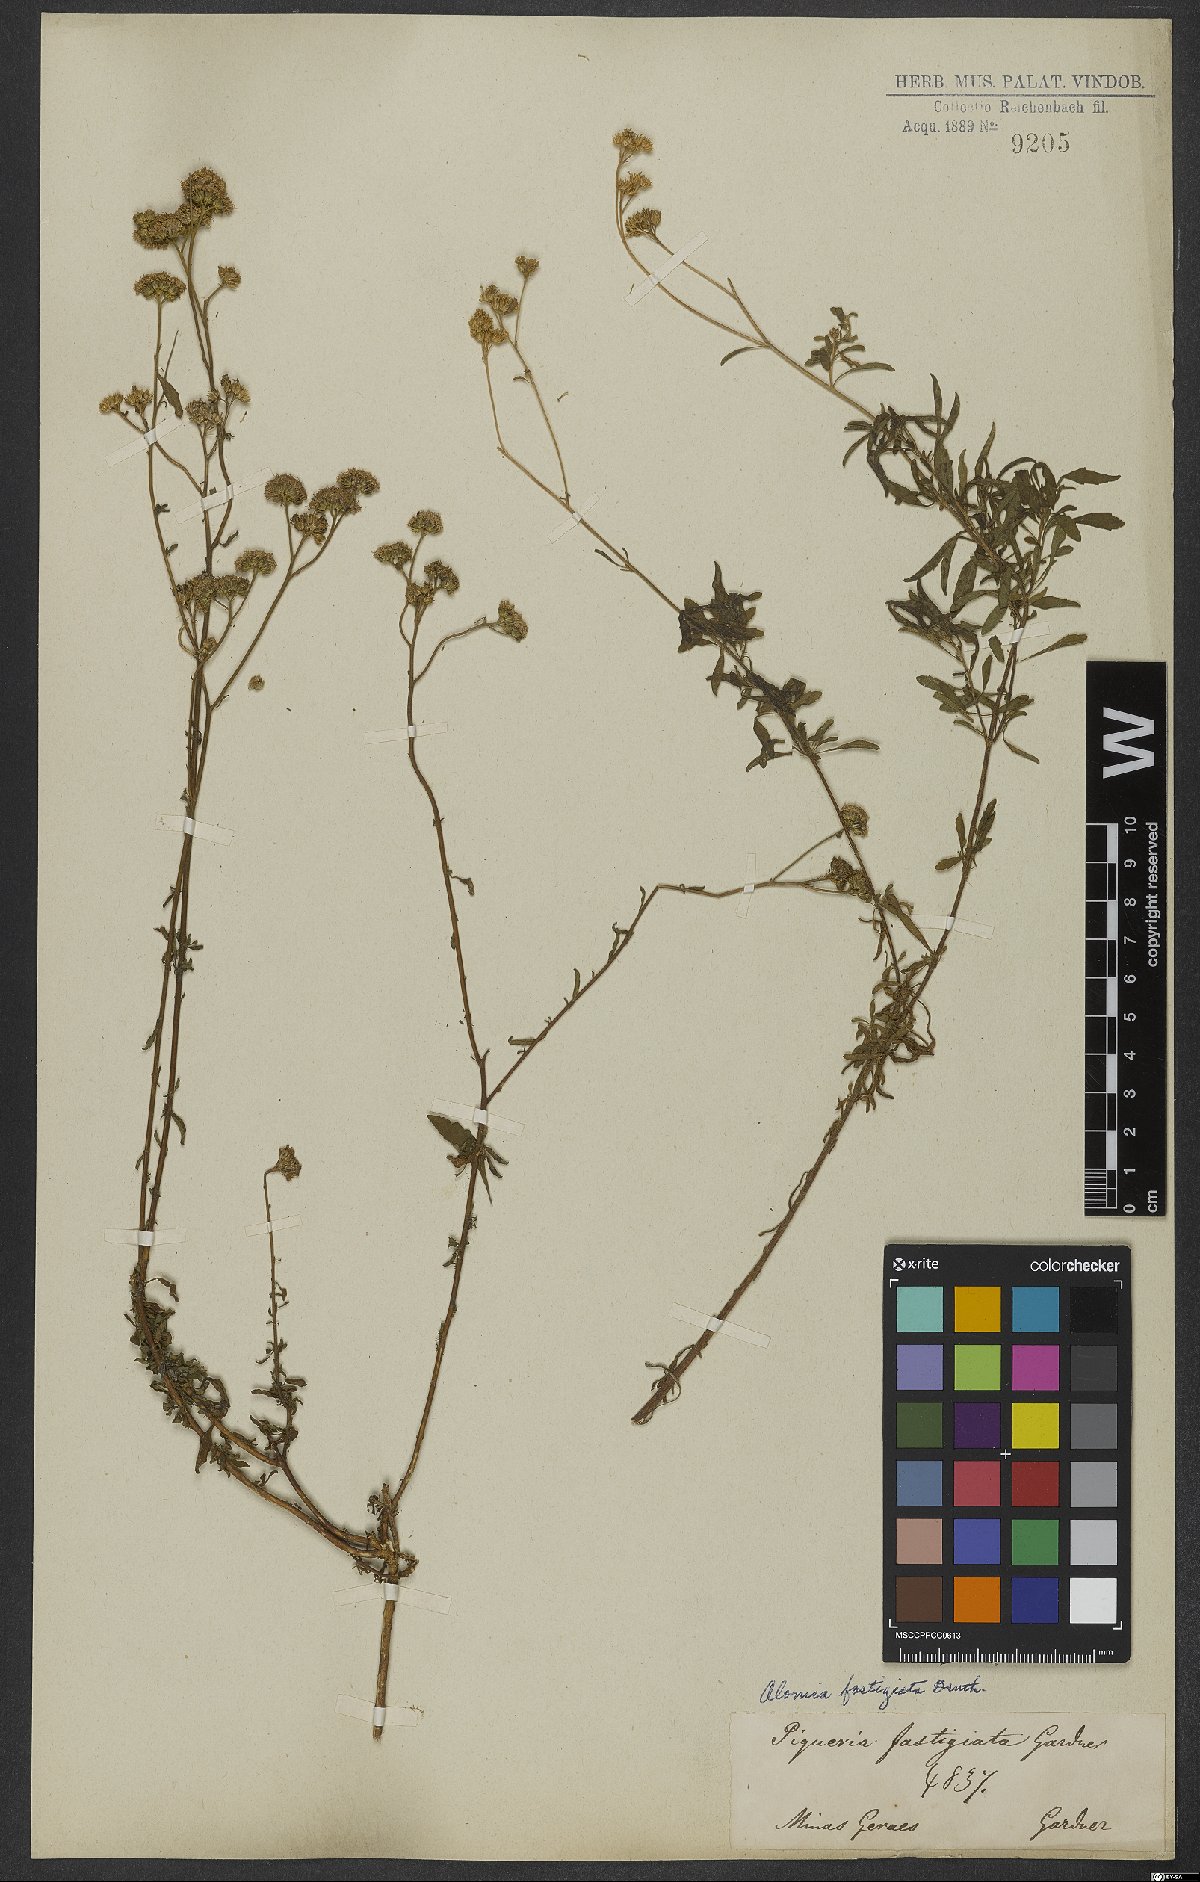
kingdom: Plantae
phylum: Tracheophyta
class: Magnoliopsida
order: Asterales
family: Asteraceae
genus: Ageratum
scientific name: Ageratum fastigiatum
